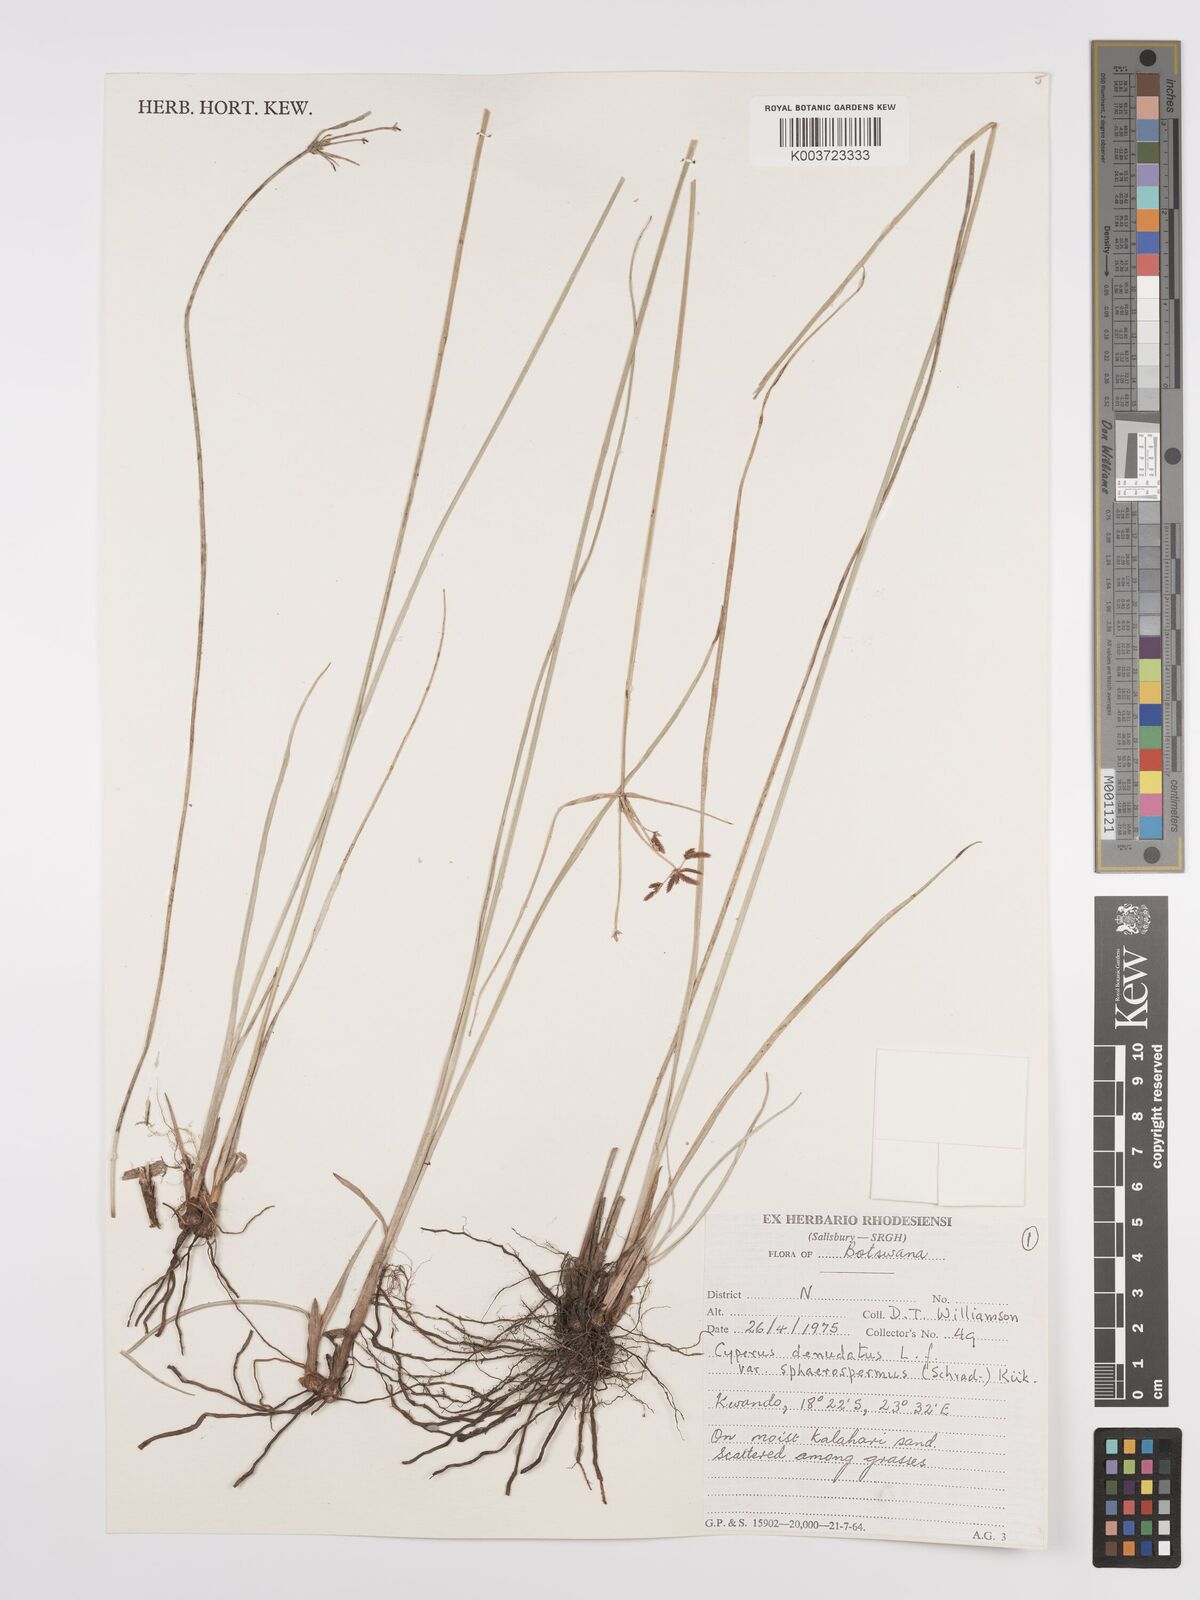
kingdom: Plantae
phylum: Tracheophyta
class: Liliopsida
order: Poales
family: Cyperaceae
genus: Cyperus
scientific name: Cyperus denudatus
